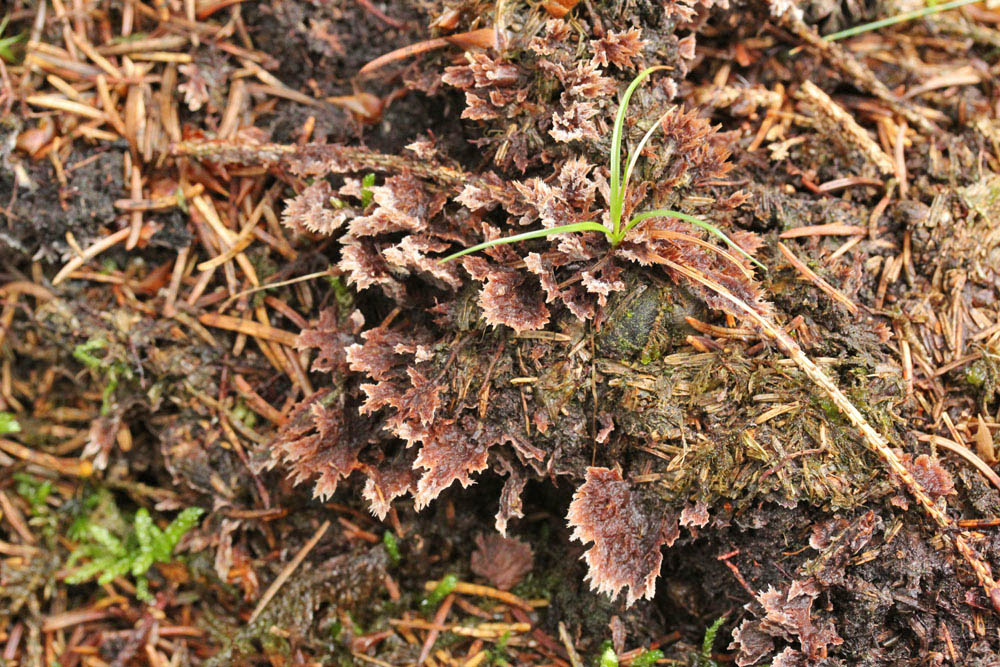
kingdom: Fungi
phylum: Basidiomycota
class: Agaricomycetes
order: Thelephorales
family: Thelephoraceae
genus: Thelephora
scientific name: Thelephora terrestris
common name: fliget frynsesvamp
